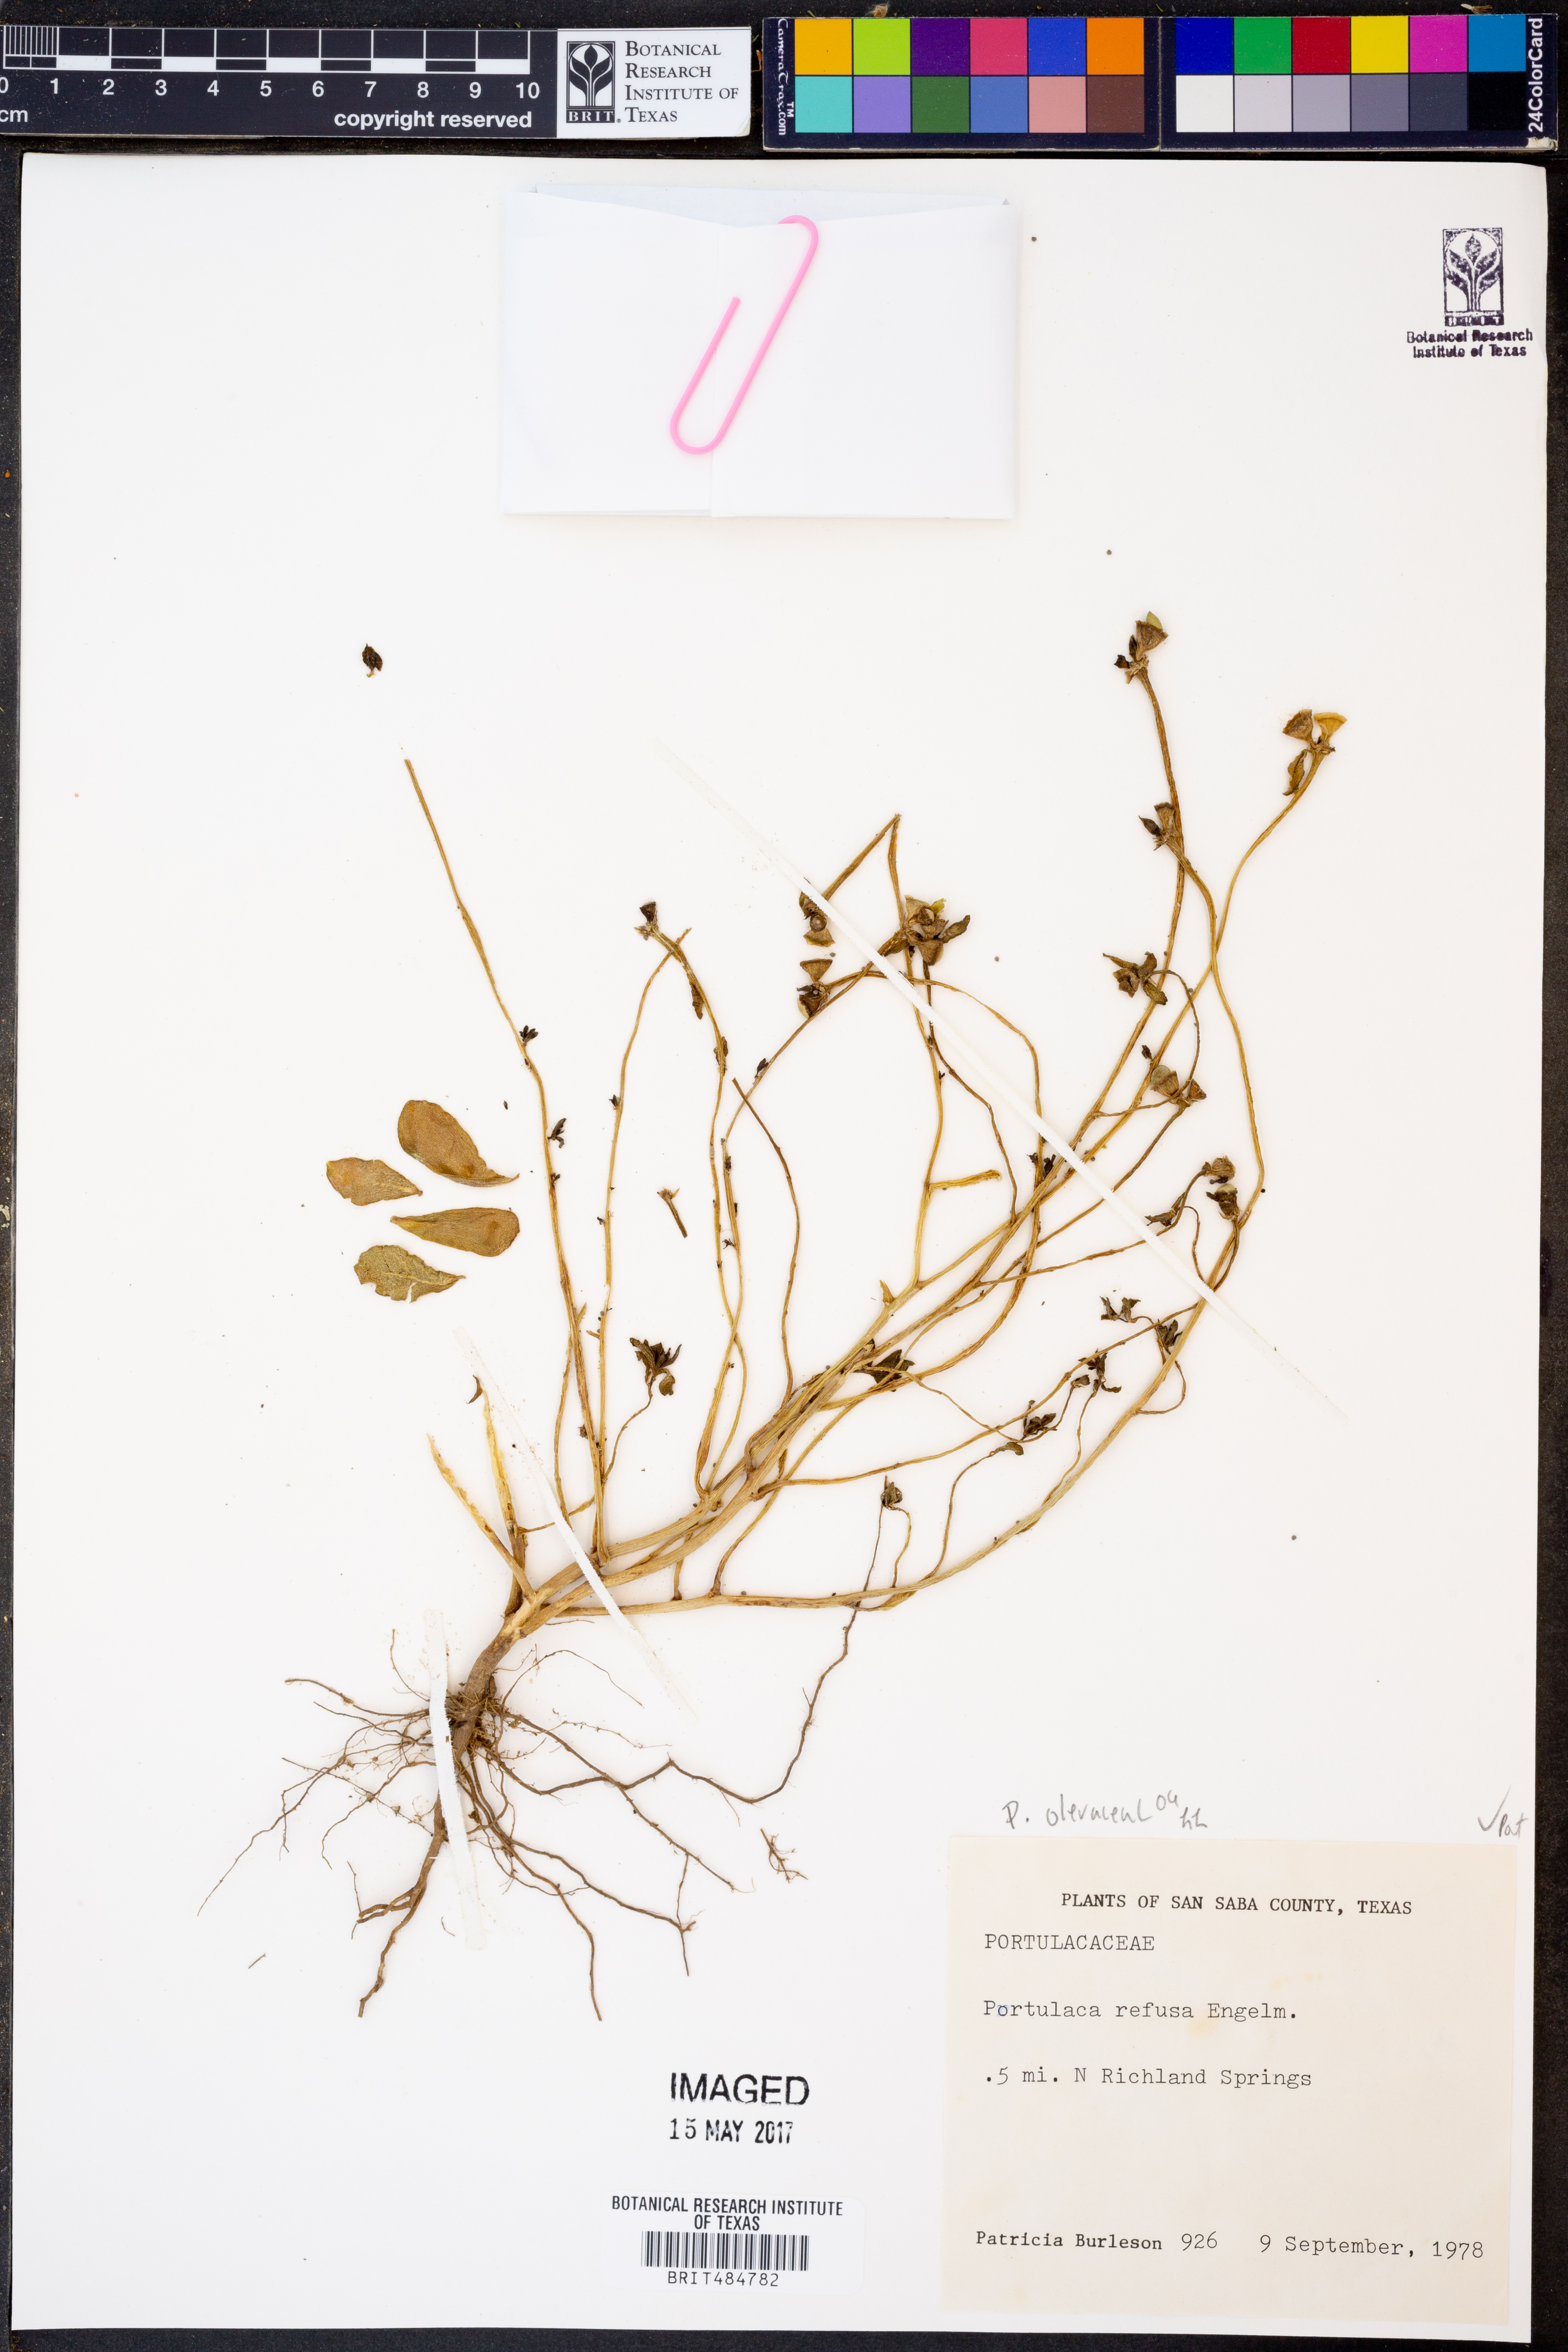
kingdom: Plantae
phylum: Tracheophyta
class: Magnoliopsida
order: Caryophyllales
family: Portulacaceae
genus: Portulaca
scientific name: Portulaca oleracea
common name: Common purslane
